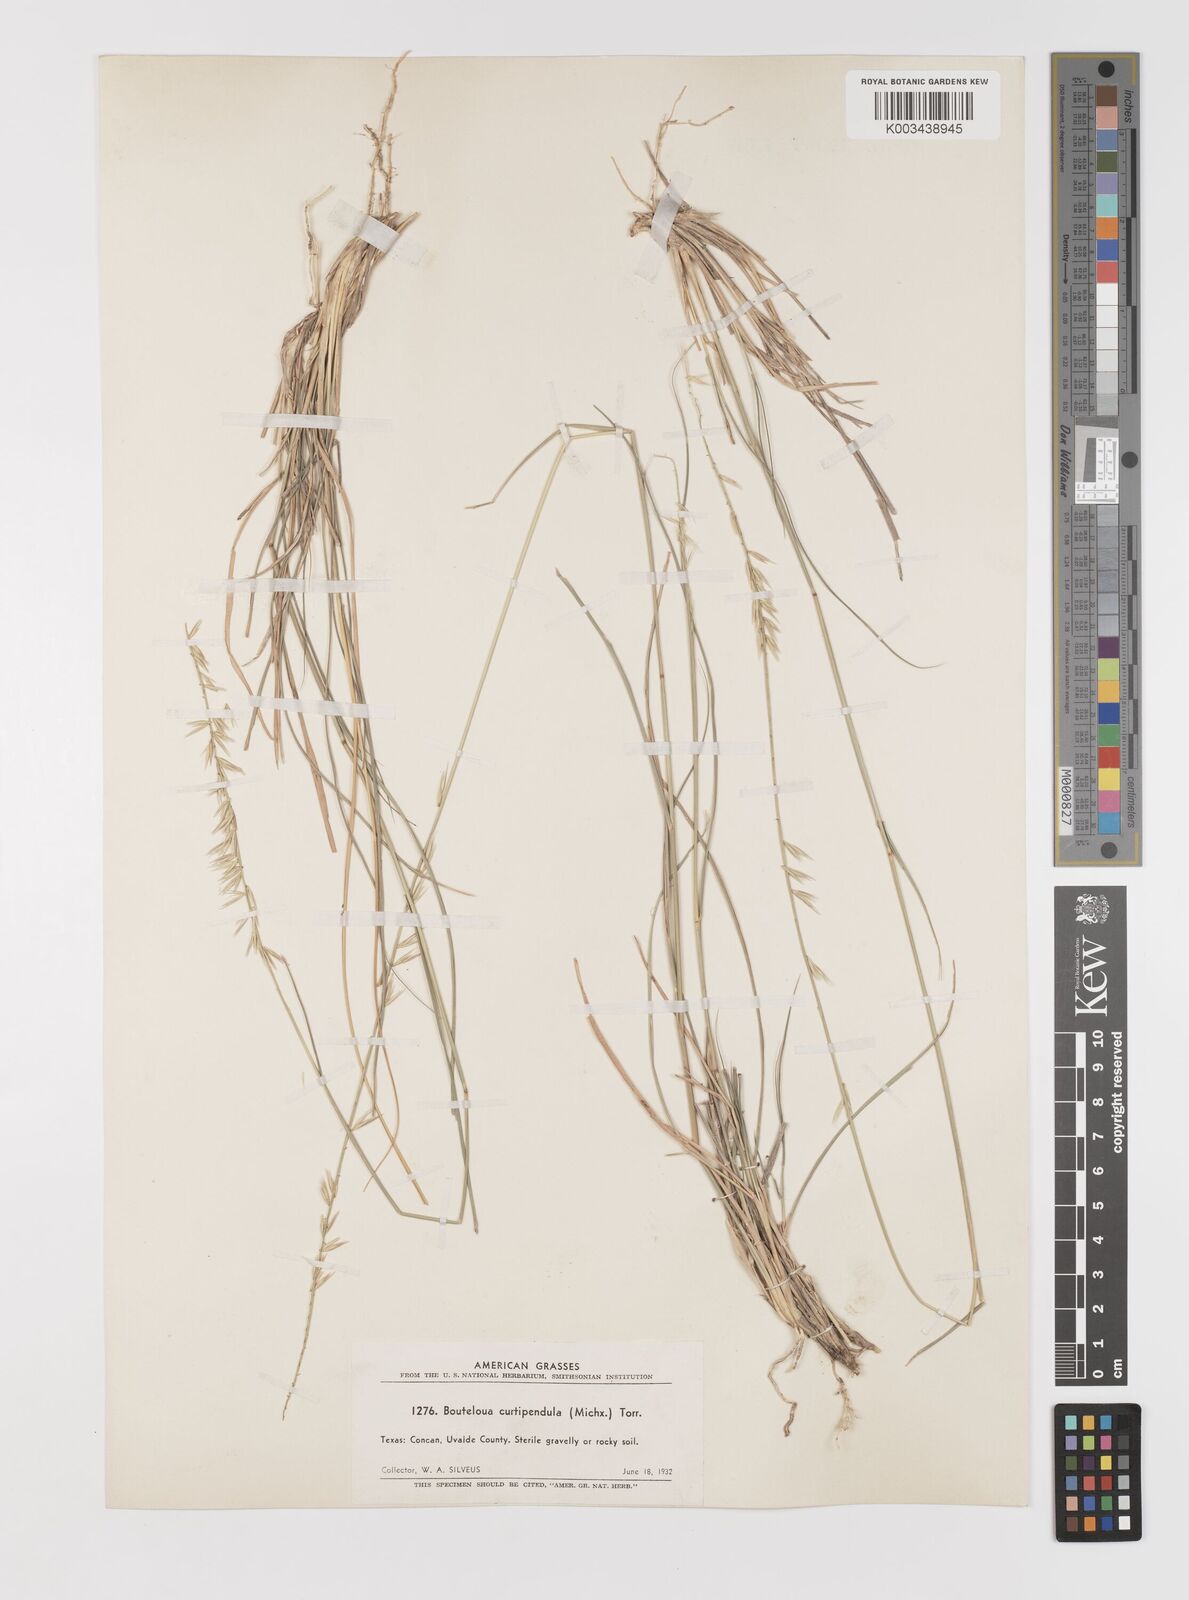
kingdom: Plantae
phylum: Tracheophyta
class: Liliopsida
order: Poales
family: Poaceae
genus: Bouteloua
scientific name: Bouteloua curtipendula
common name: Side-oats grama
